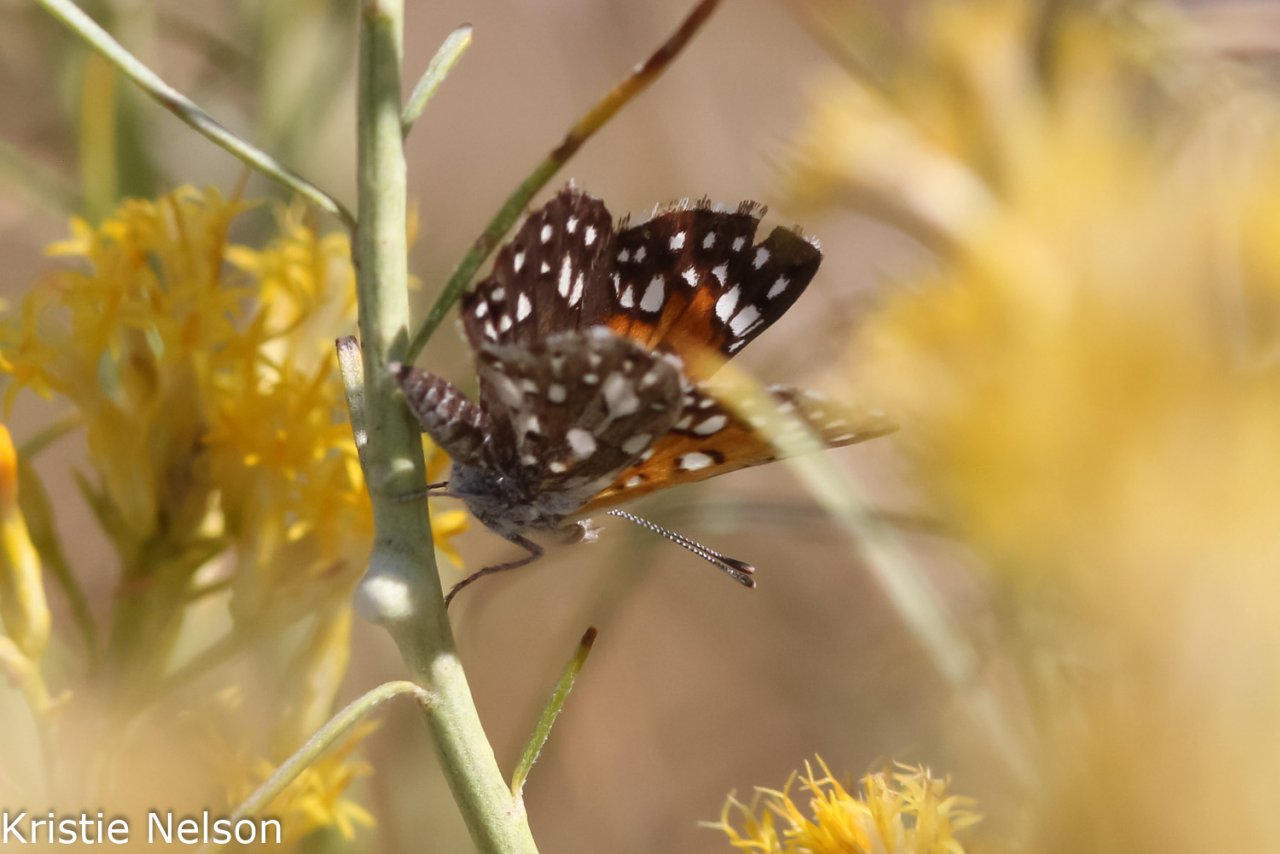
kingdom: Animalia
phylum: Arthropoda
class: Insecta
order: Lepidoptera
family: Riodinidae
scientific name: Riodinidae
